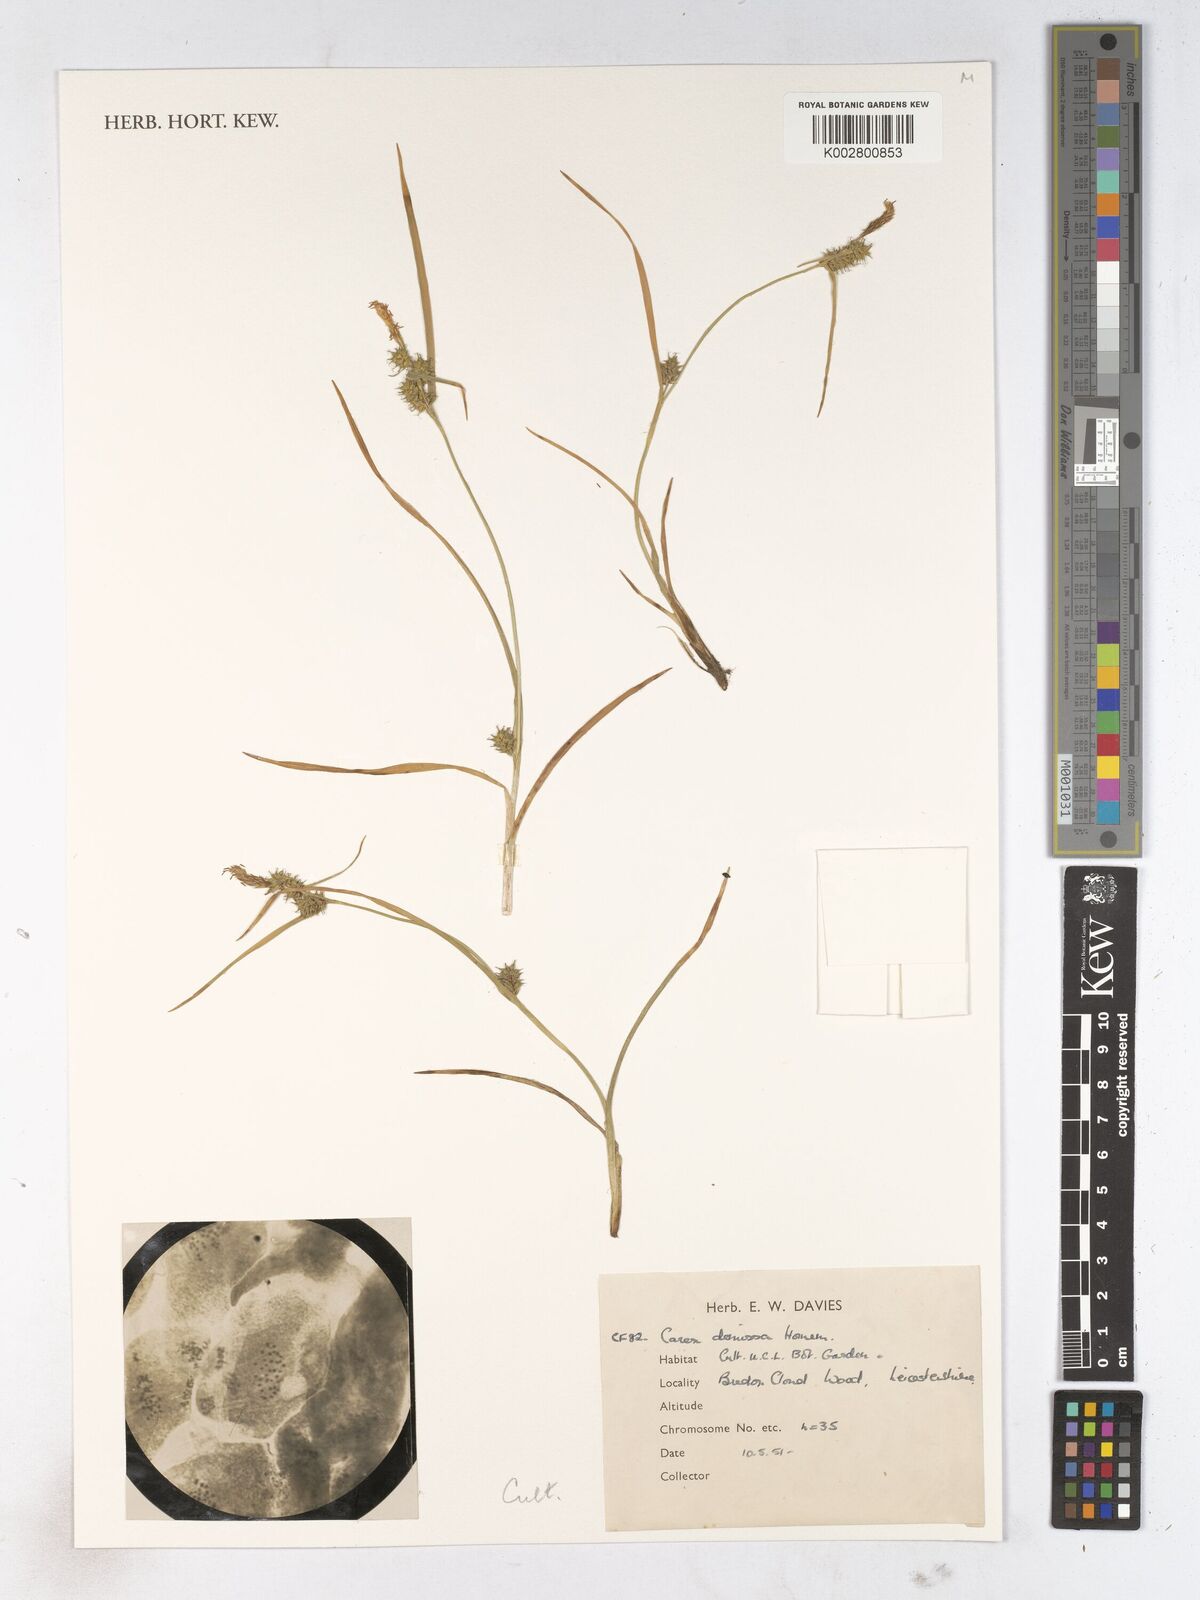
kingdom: Plantae
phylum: Tracheophyta
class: Liliopsida
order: Poales
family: Cyperaceae
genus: Carex
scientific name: Carex demissa
